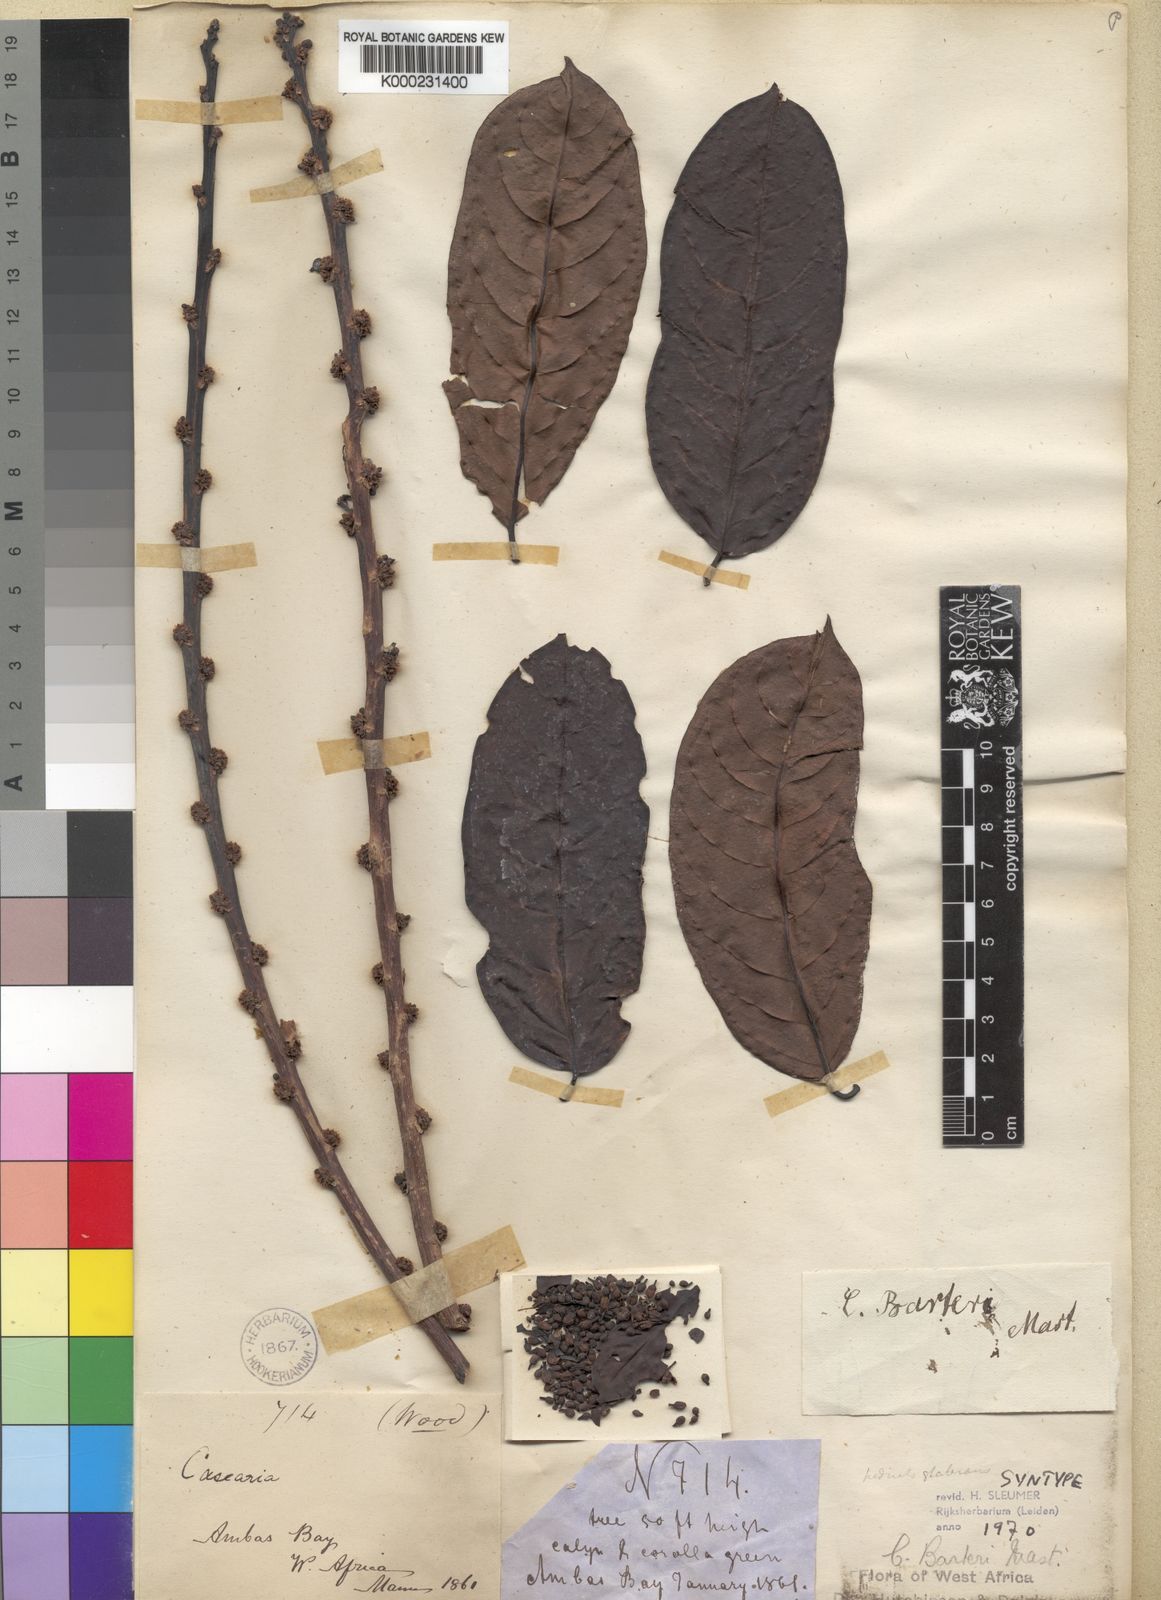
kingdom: Plantae
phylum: Tracheophyta
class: Magnoliopsida
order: Malpighiales
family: Salicaceae
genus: Casearia
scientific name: Casearia barteri
